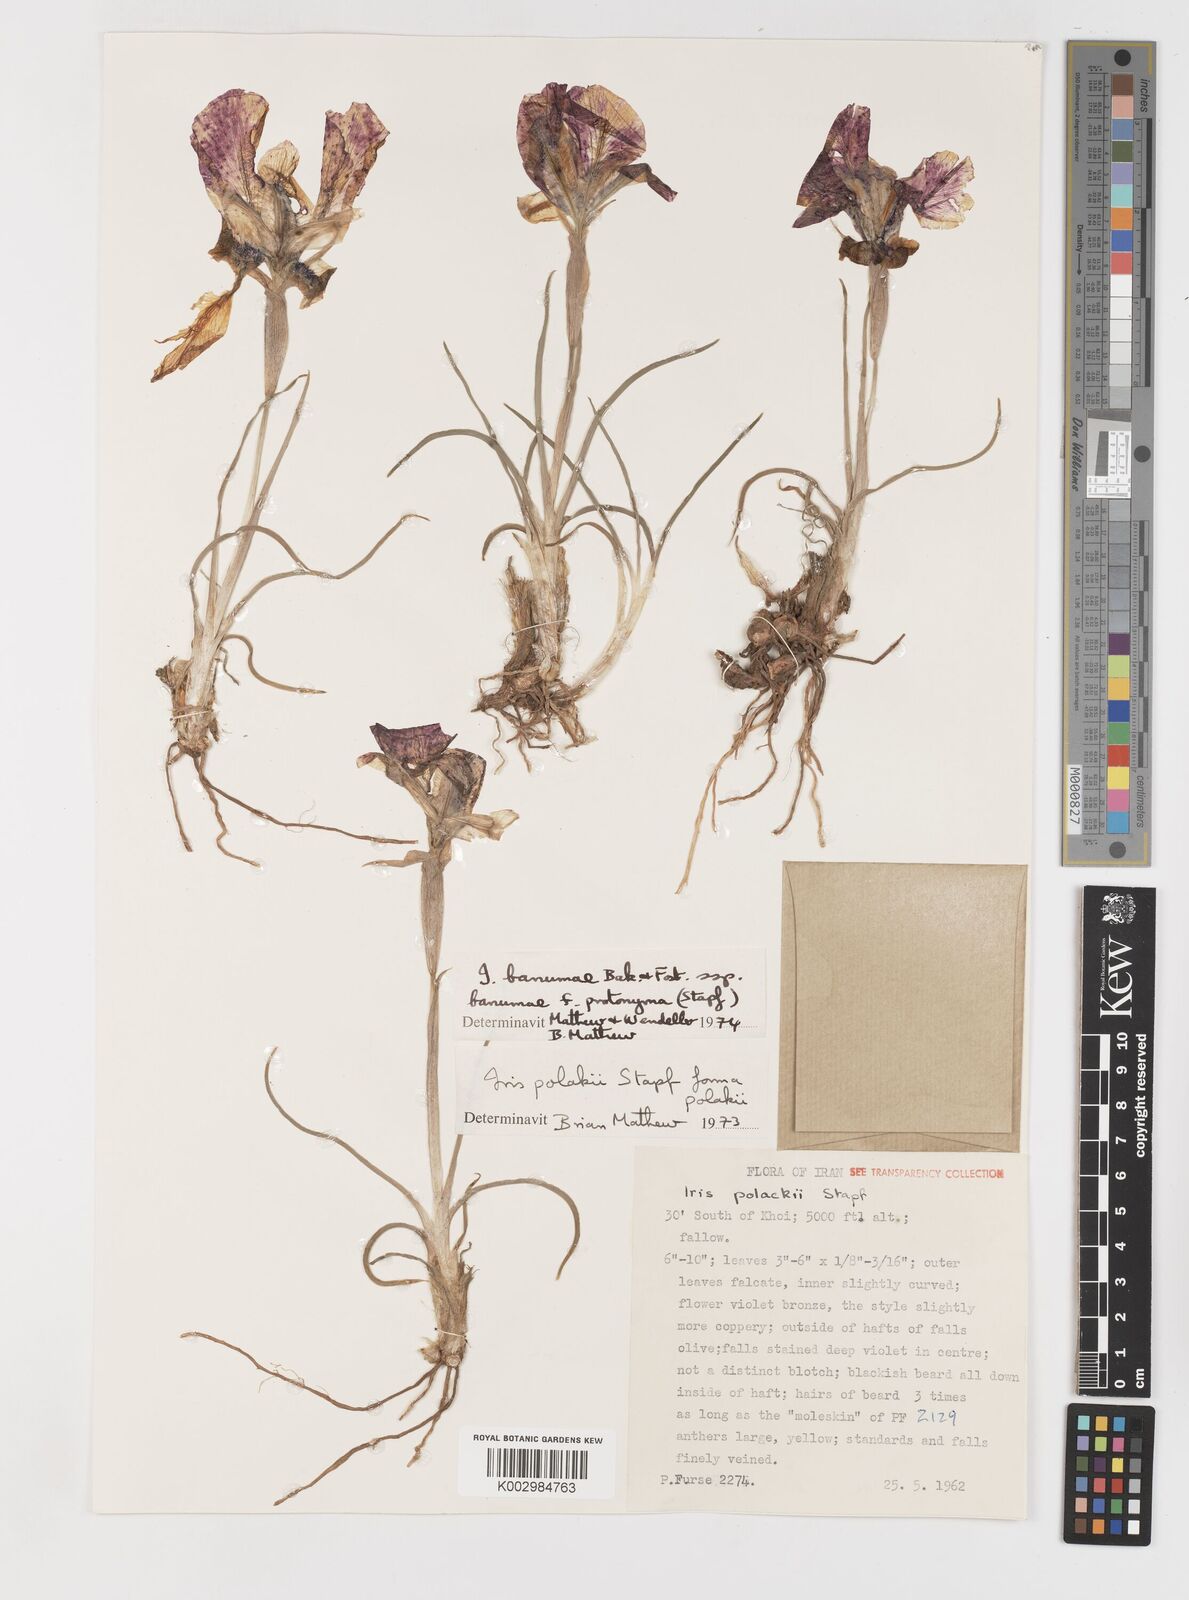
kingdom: Plantae
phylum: Tracheophyta
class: Liliopsida
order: Asparagales
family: Iridaceae
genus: Iris
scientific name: Iris polakii
